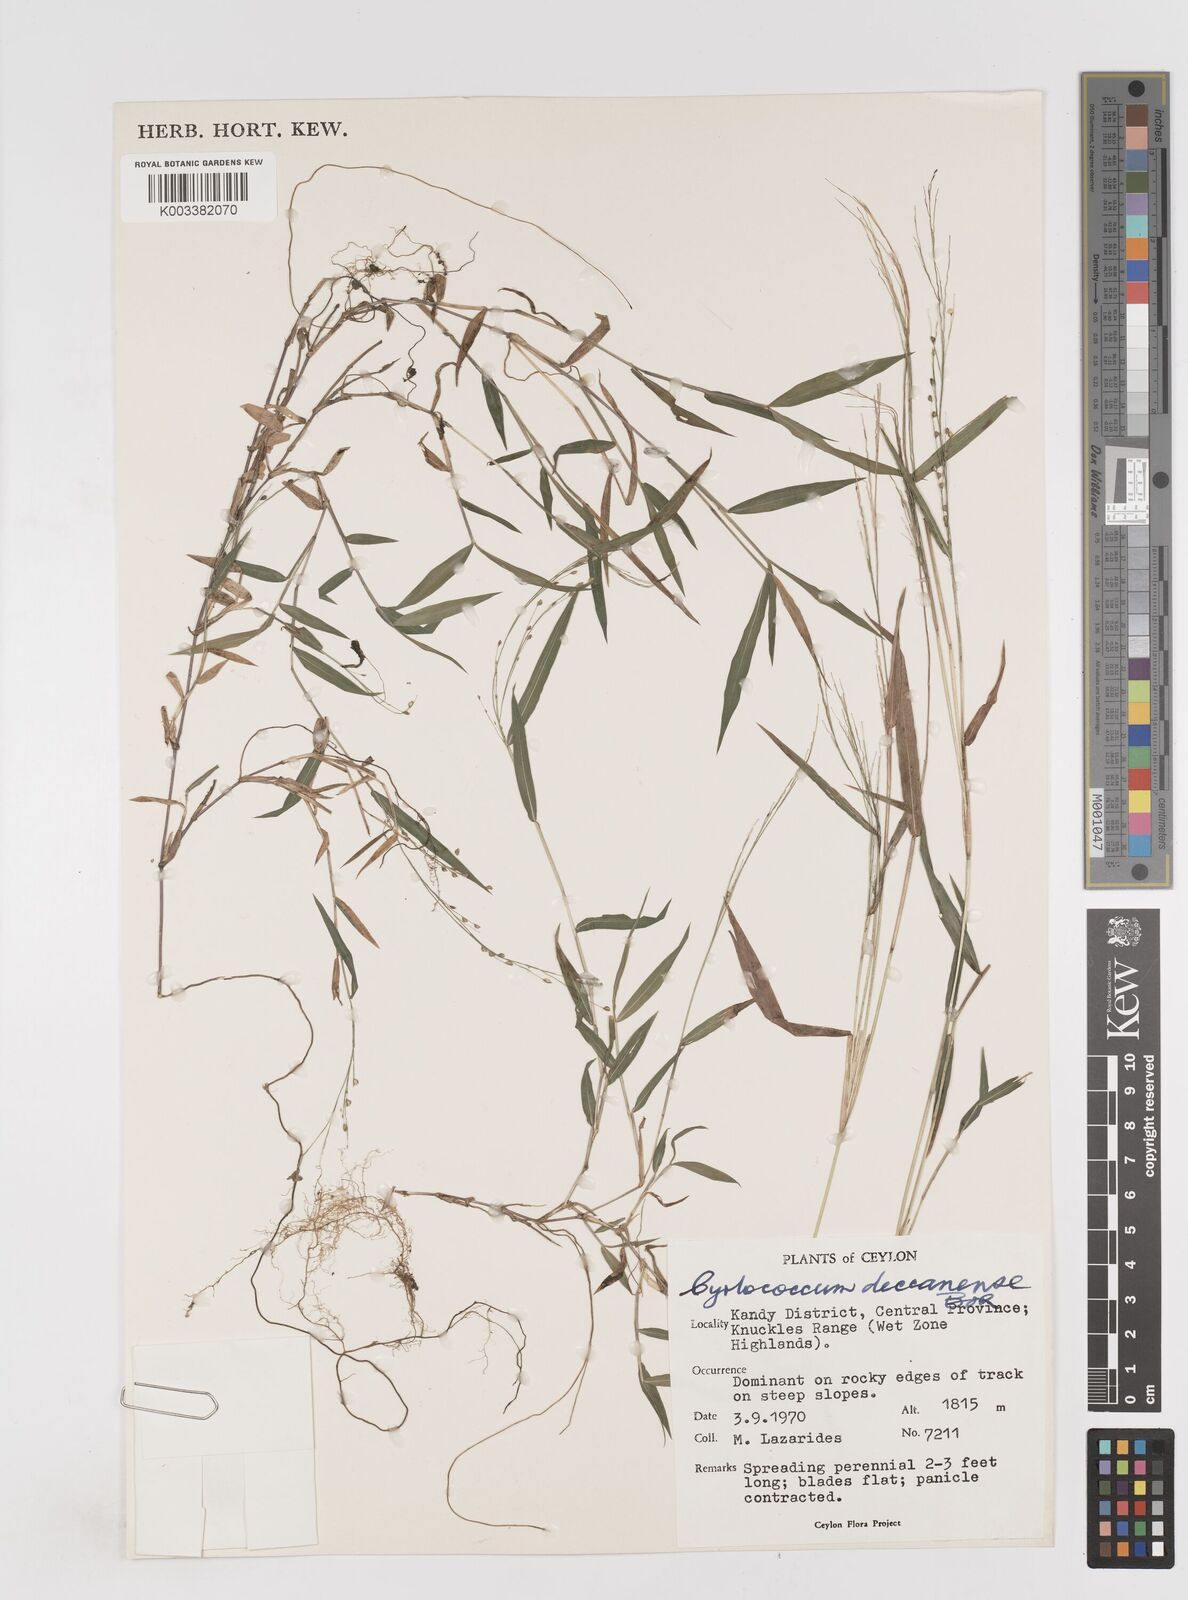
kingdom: Plantae
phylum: Tracheophyta
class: Liliopsida
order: Poales
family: Poaceae
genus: Cyrtococcum
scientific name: Cyrtococcum deccanense
